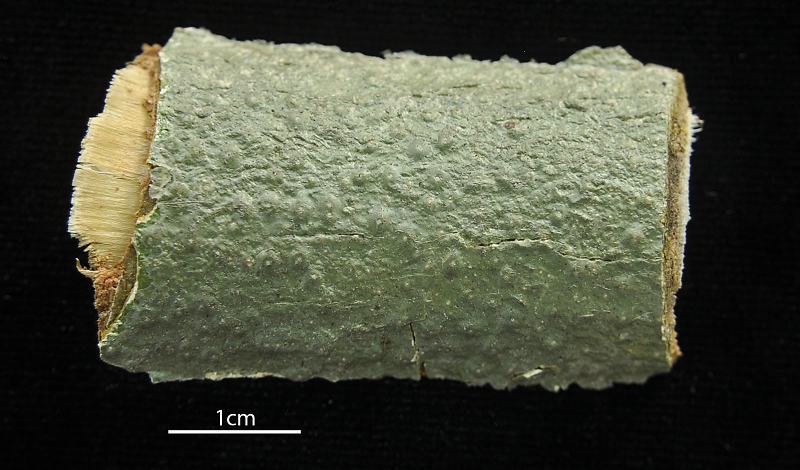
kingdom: Fungi
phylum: Ascomycota
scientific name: Ascomycota
